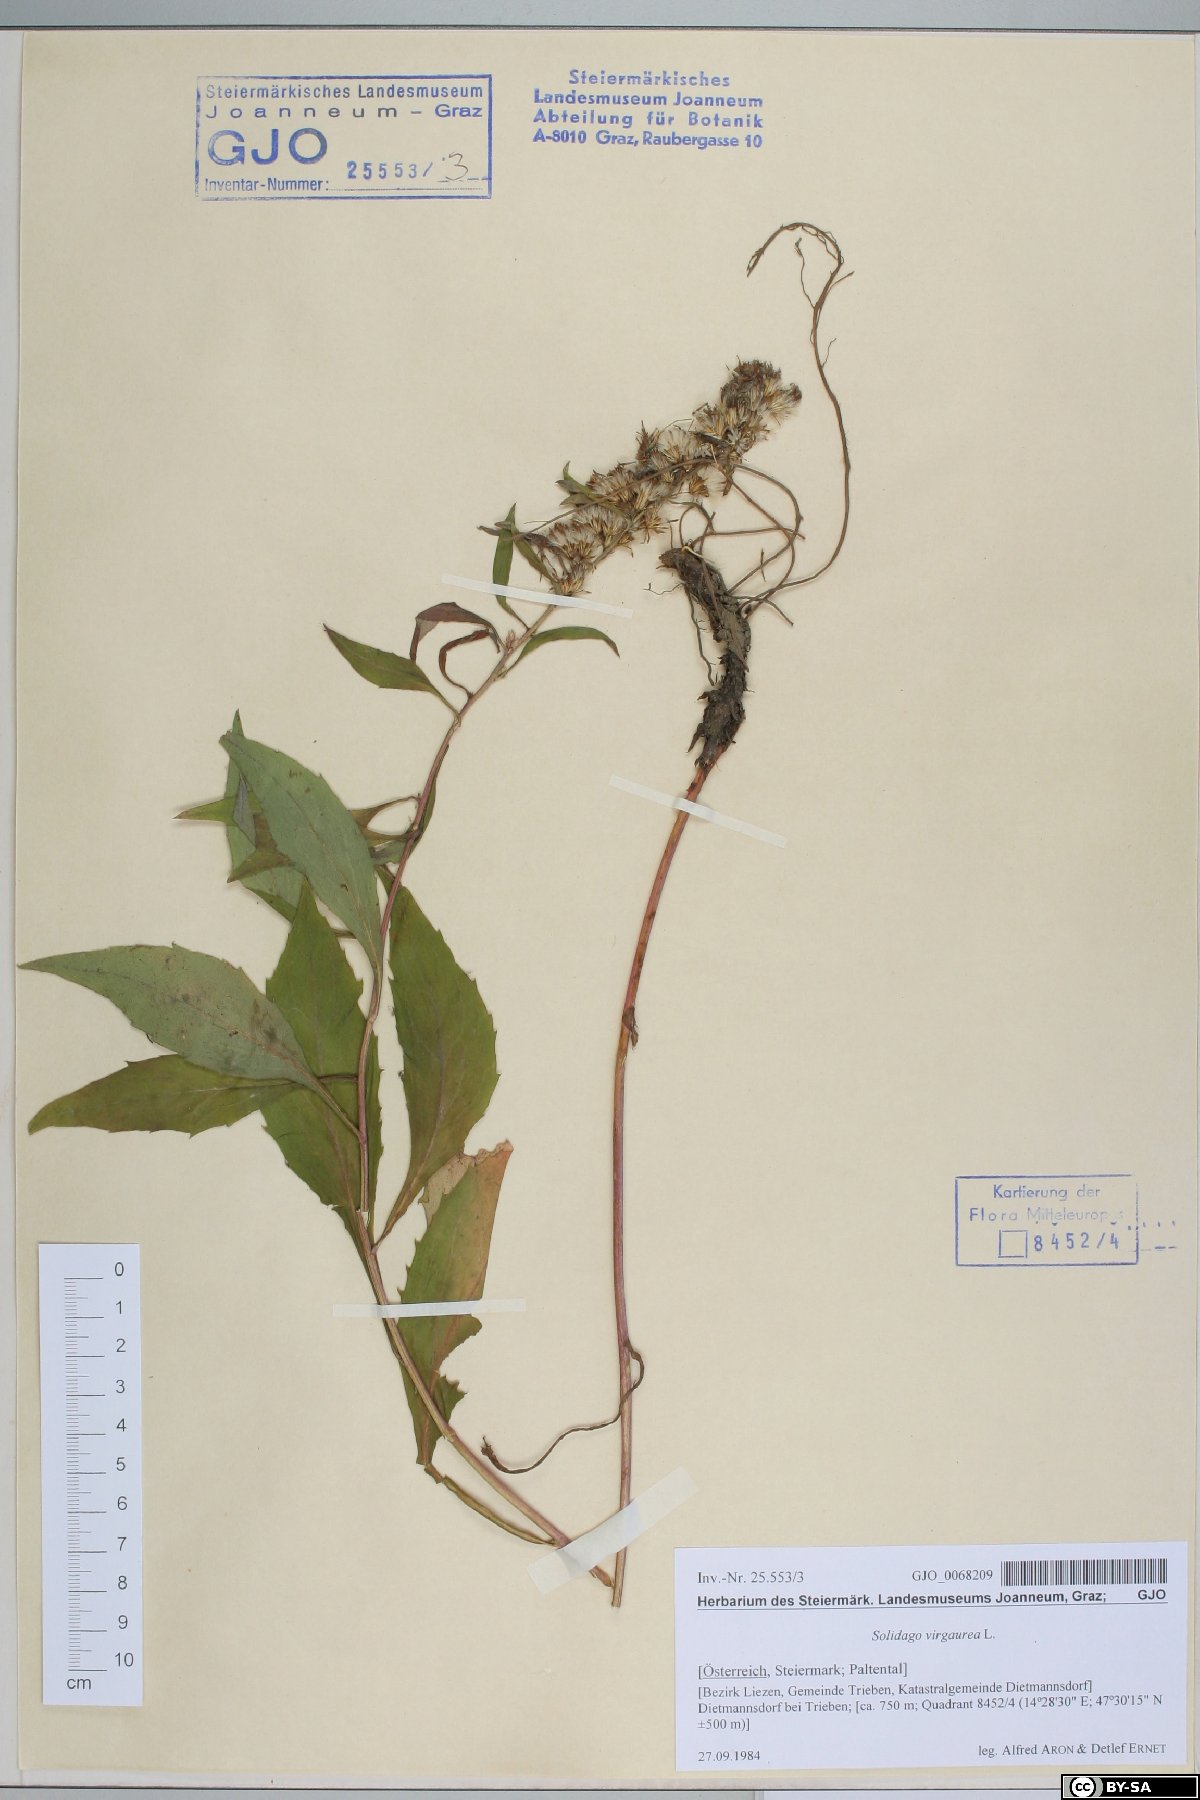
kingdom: Plantae
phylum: Tracheophyta
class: Magnoliopsida
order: Asterales
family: Asteraceae
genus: Solidago
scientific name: Solidago virgaurea
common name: Goldenrod
